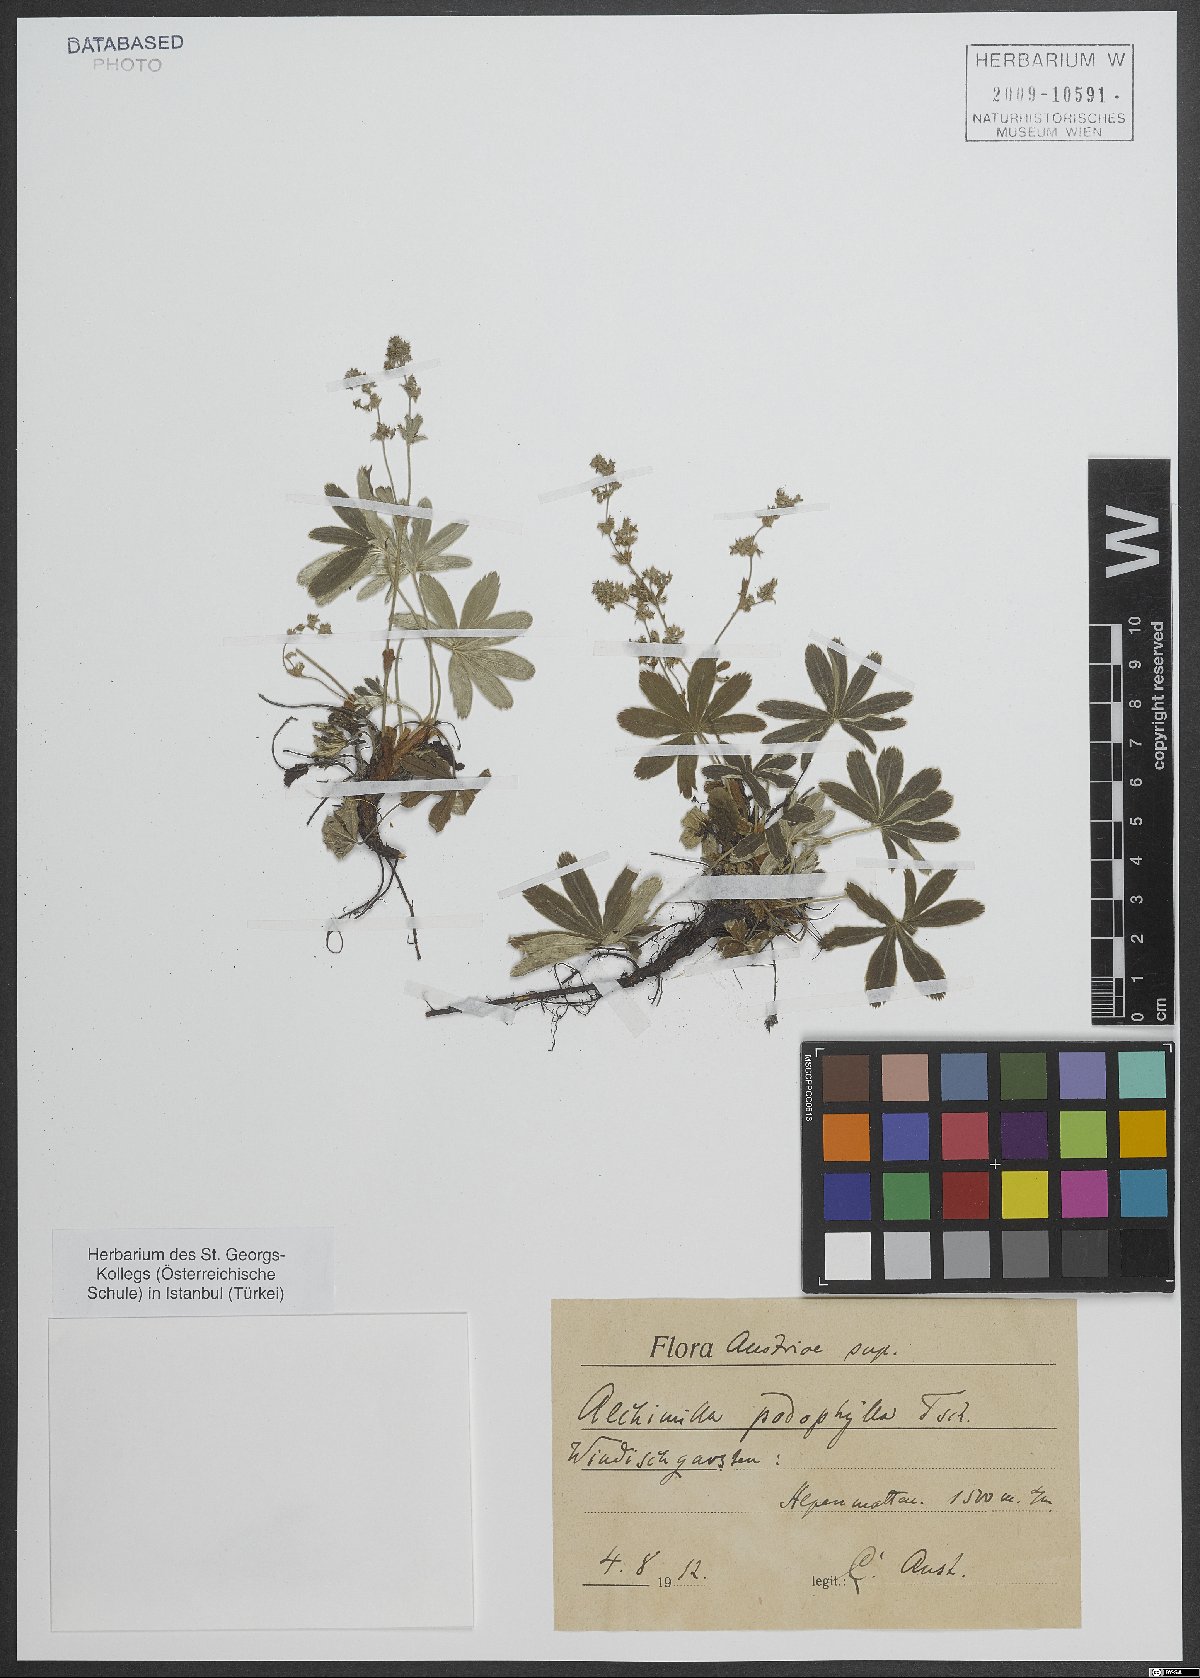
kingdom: Plantae
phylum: Tracheophyta
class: Magnoliopsida
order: Rosales
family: Rosaceae
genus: Alchemilla
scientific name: Alchemilla anisiaca
